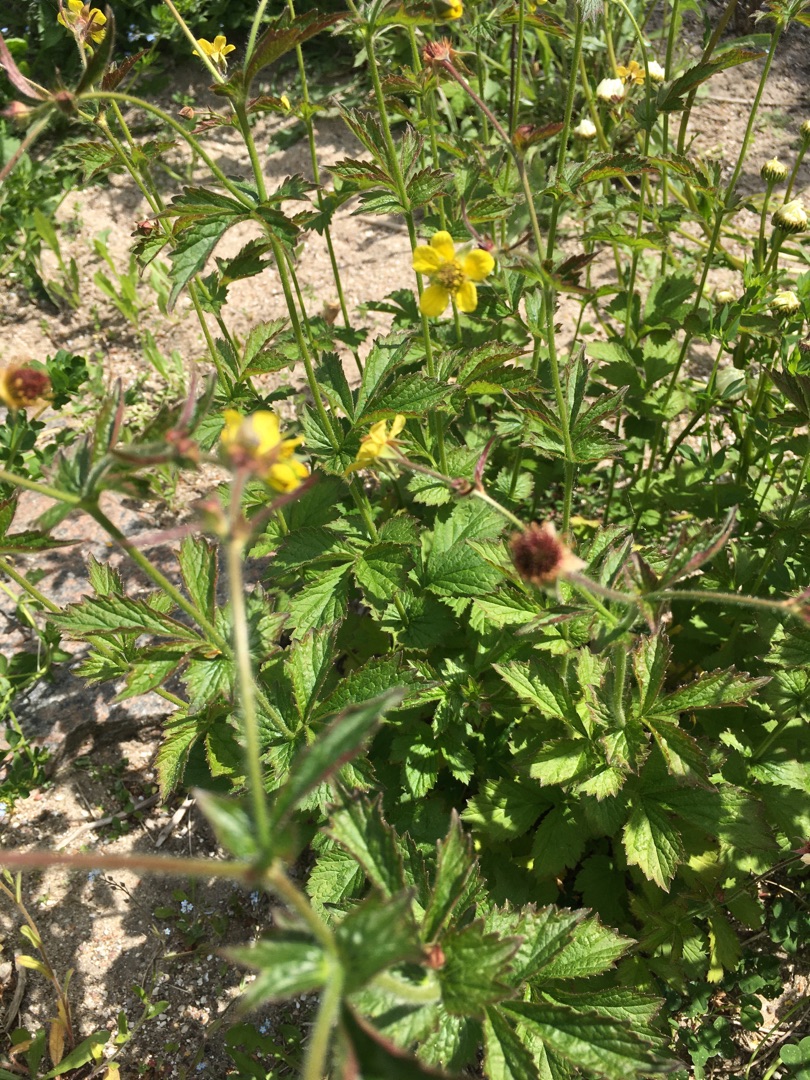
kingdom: Plantae
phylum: Tracheophyta
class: Magnoliopsida
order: Rosales
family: Rosaceae
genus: Geum
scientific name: Geum urbanum
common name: Feber-nellikerod
